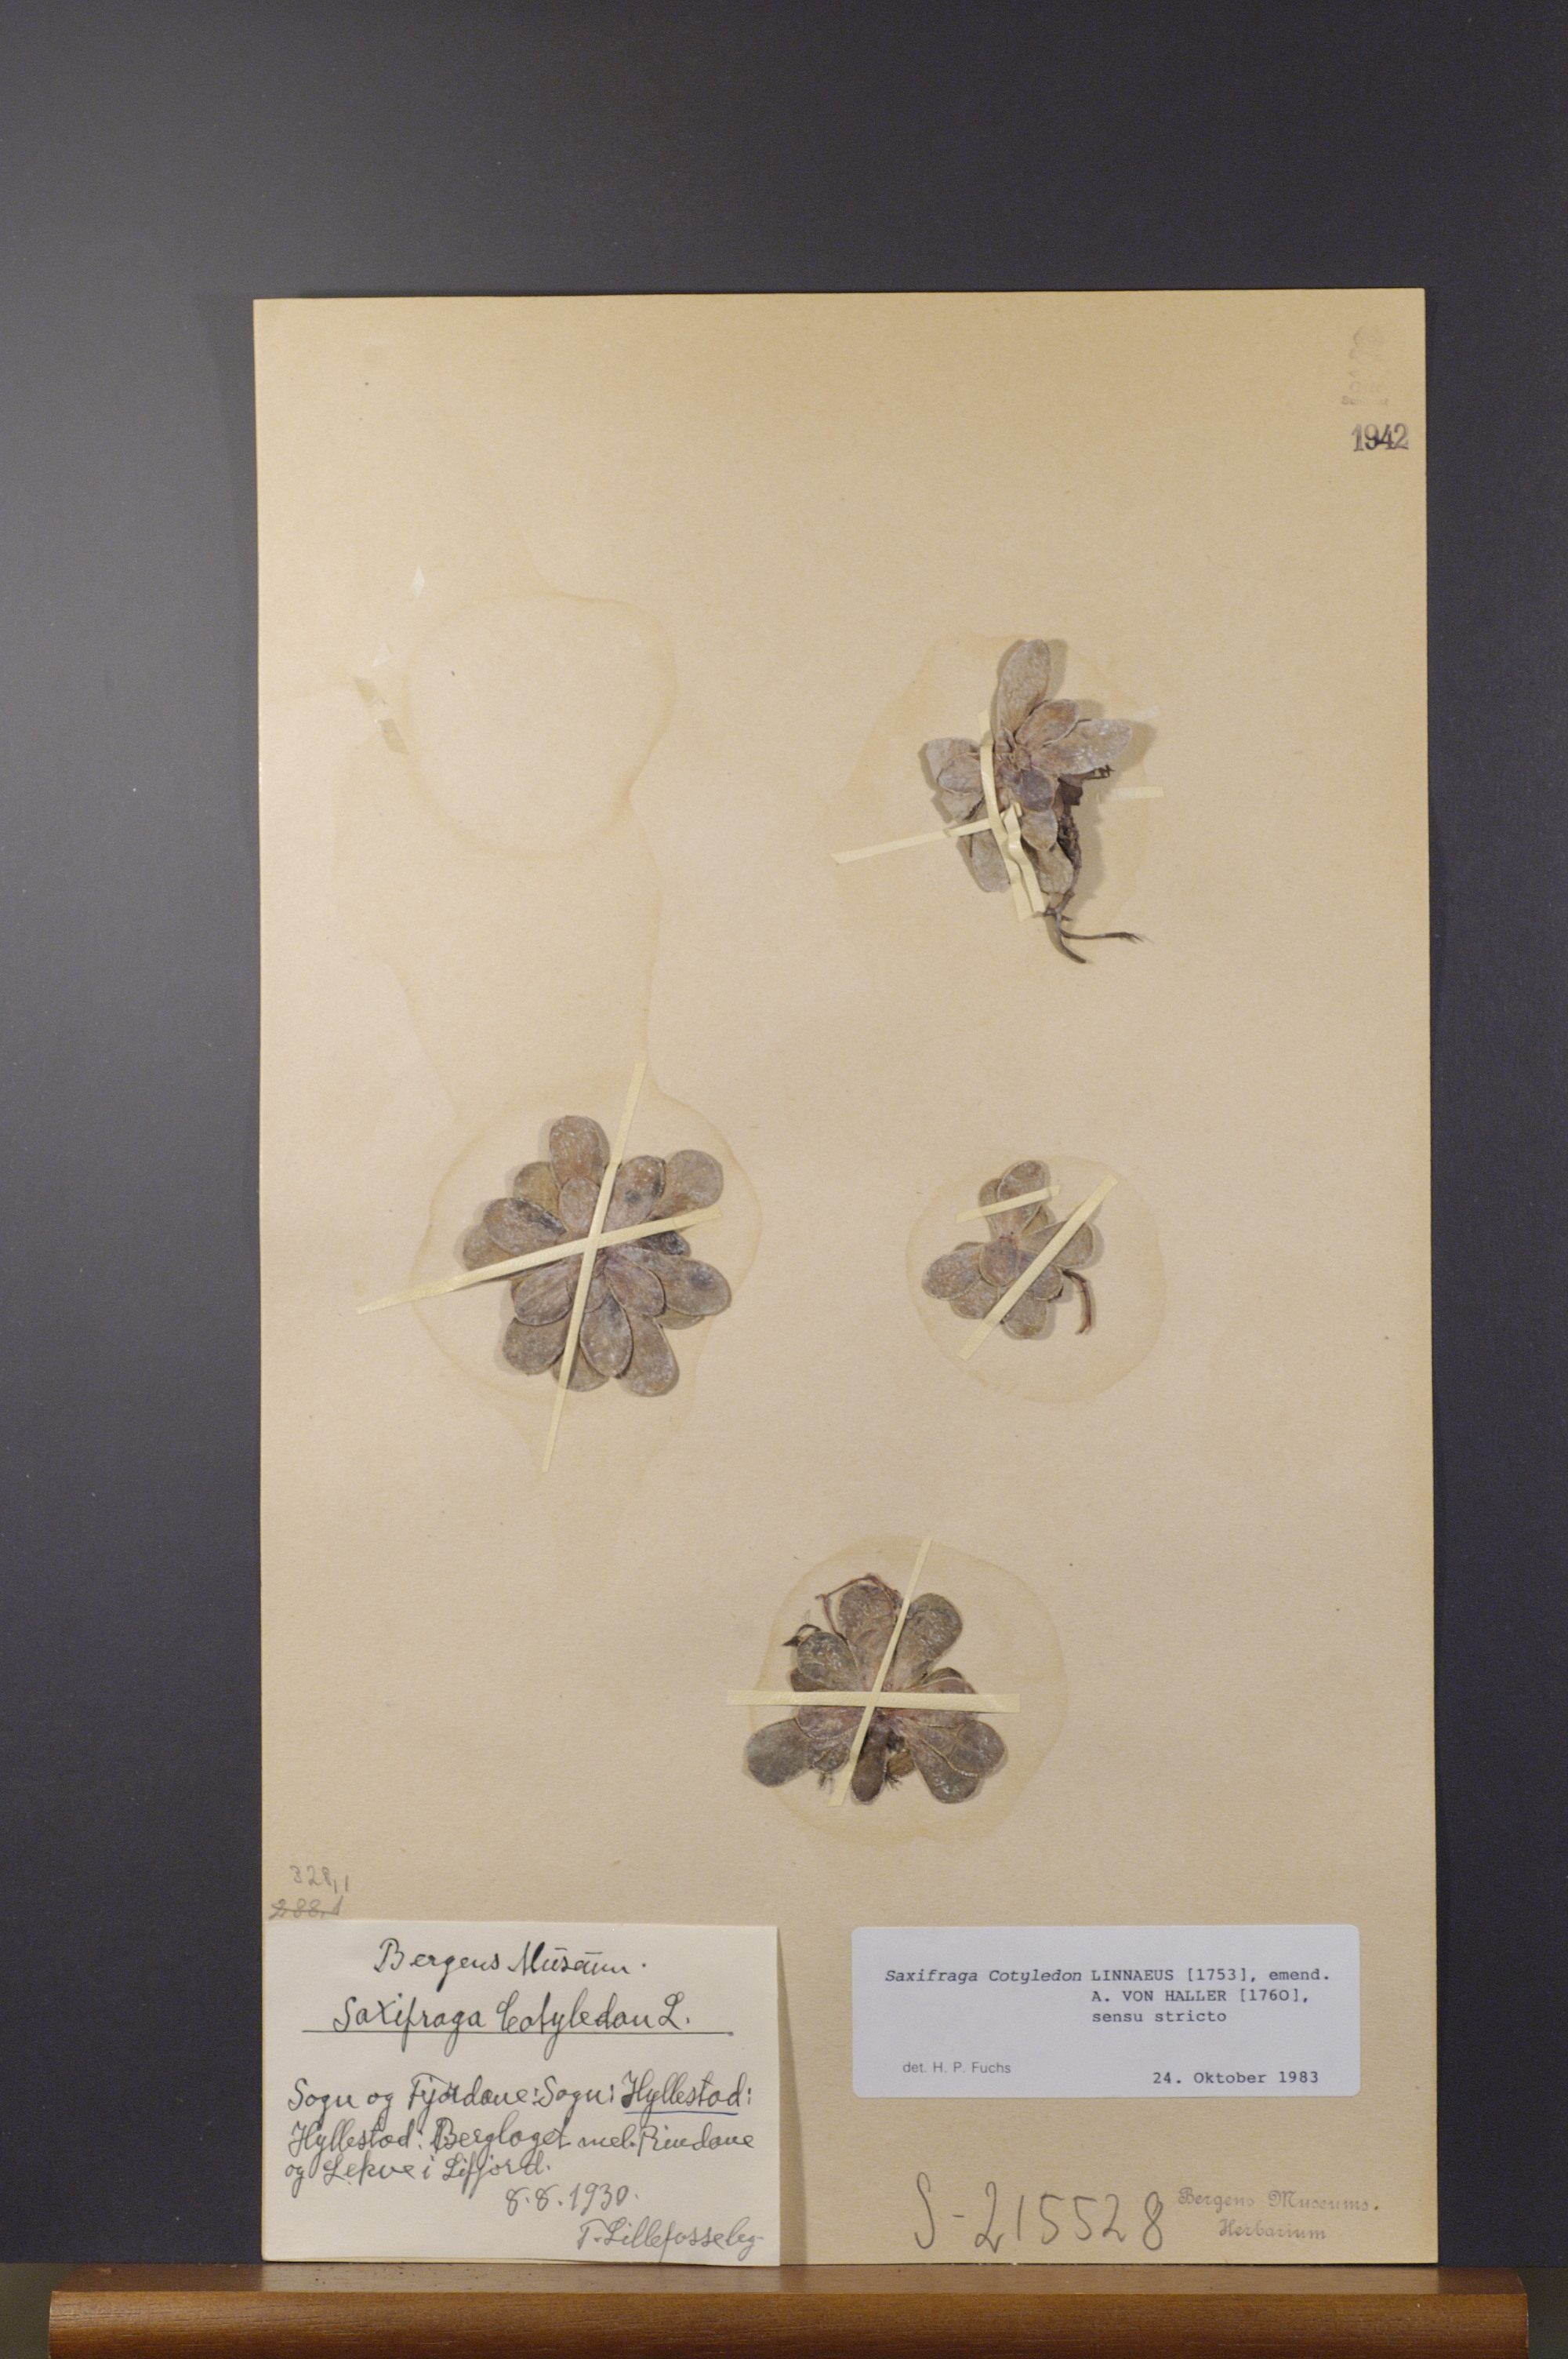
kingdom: Plantae
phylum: Tracheophyta
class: Magnoliopsida
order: Saxifragales
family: Saxifragaceae
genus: Saxifraga
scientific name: Saxifraga cotyledon
